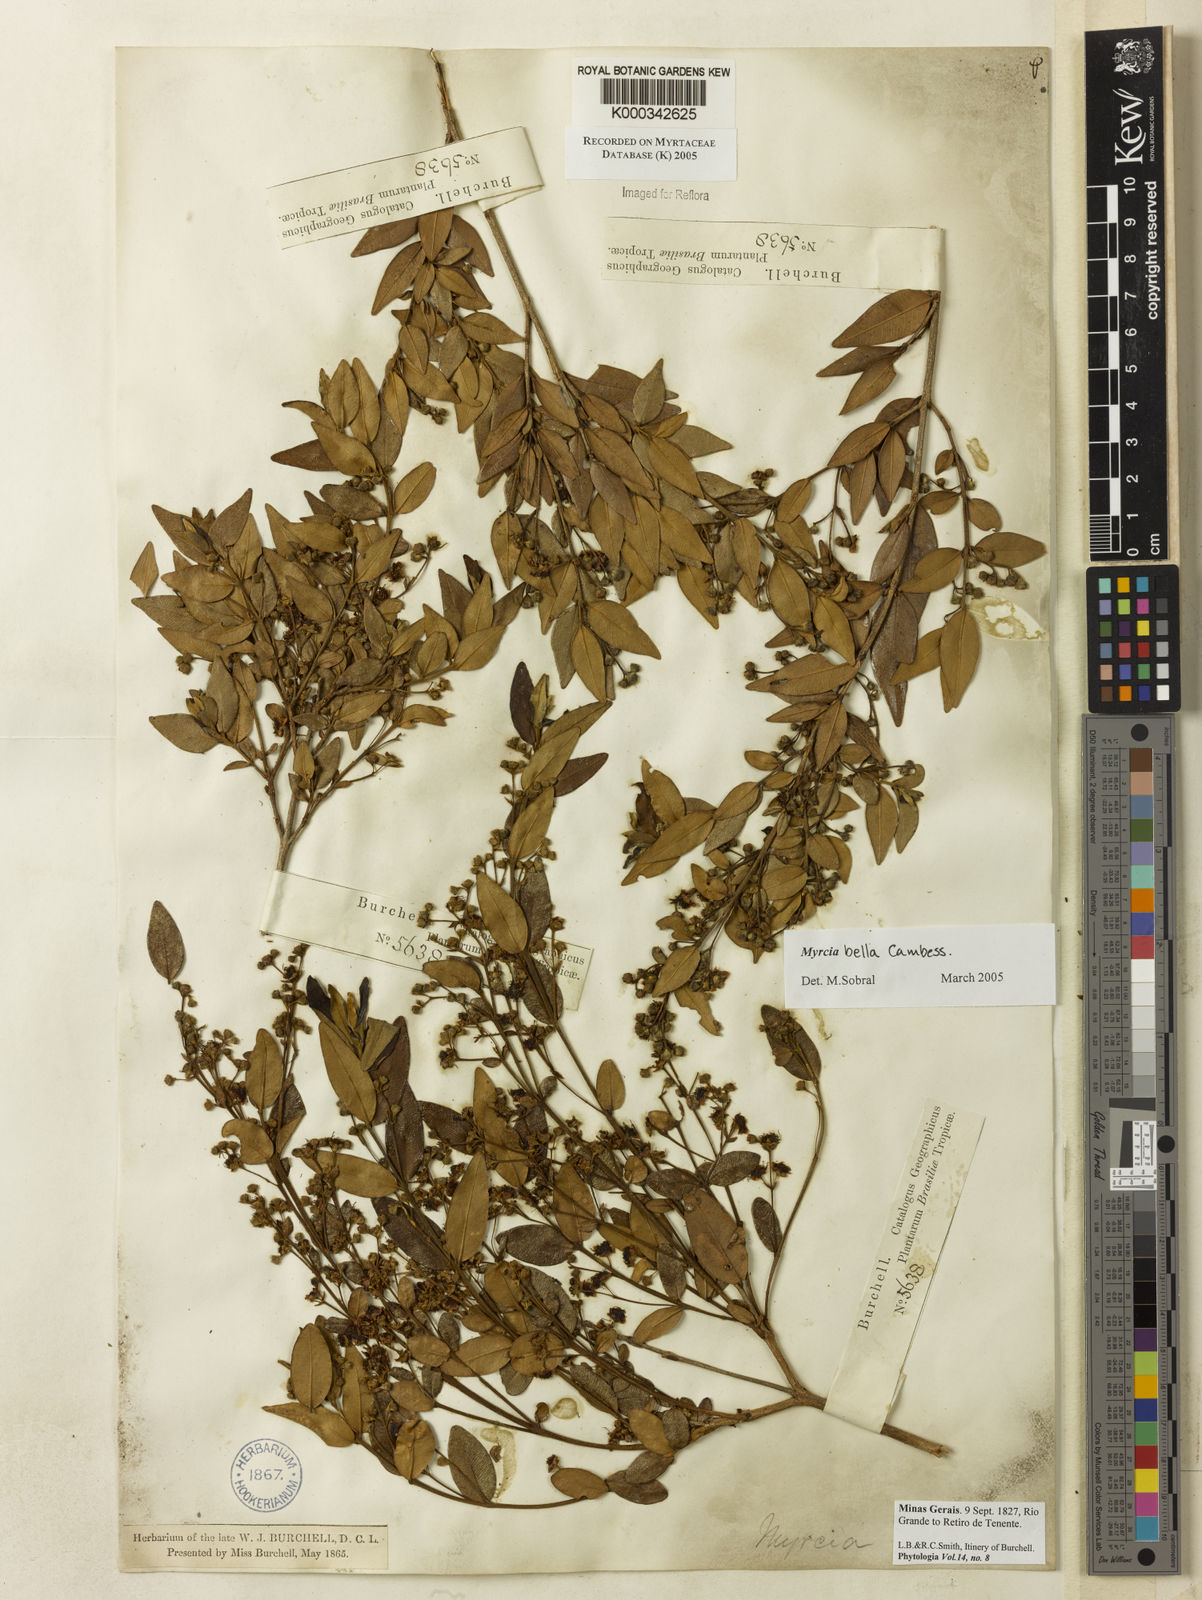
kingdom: Plantae
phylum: Tracheophyta
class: Magnoliopsida
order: Myrtales
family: Myrtaceae
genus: Myrcia
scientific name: Myrcia bella
